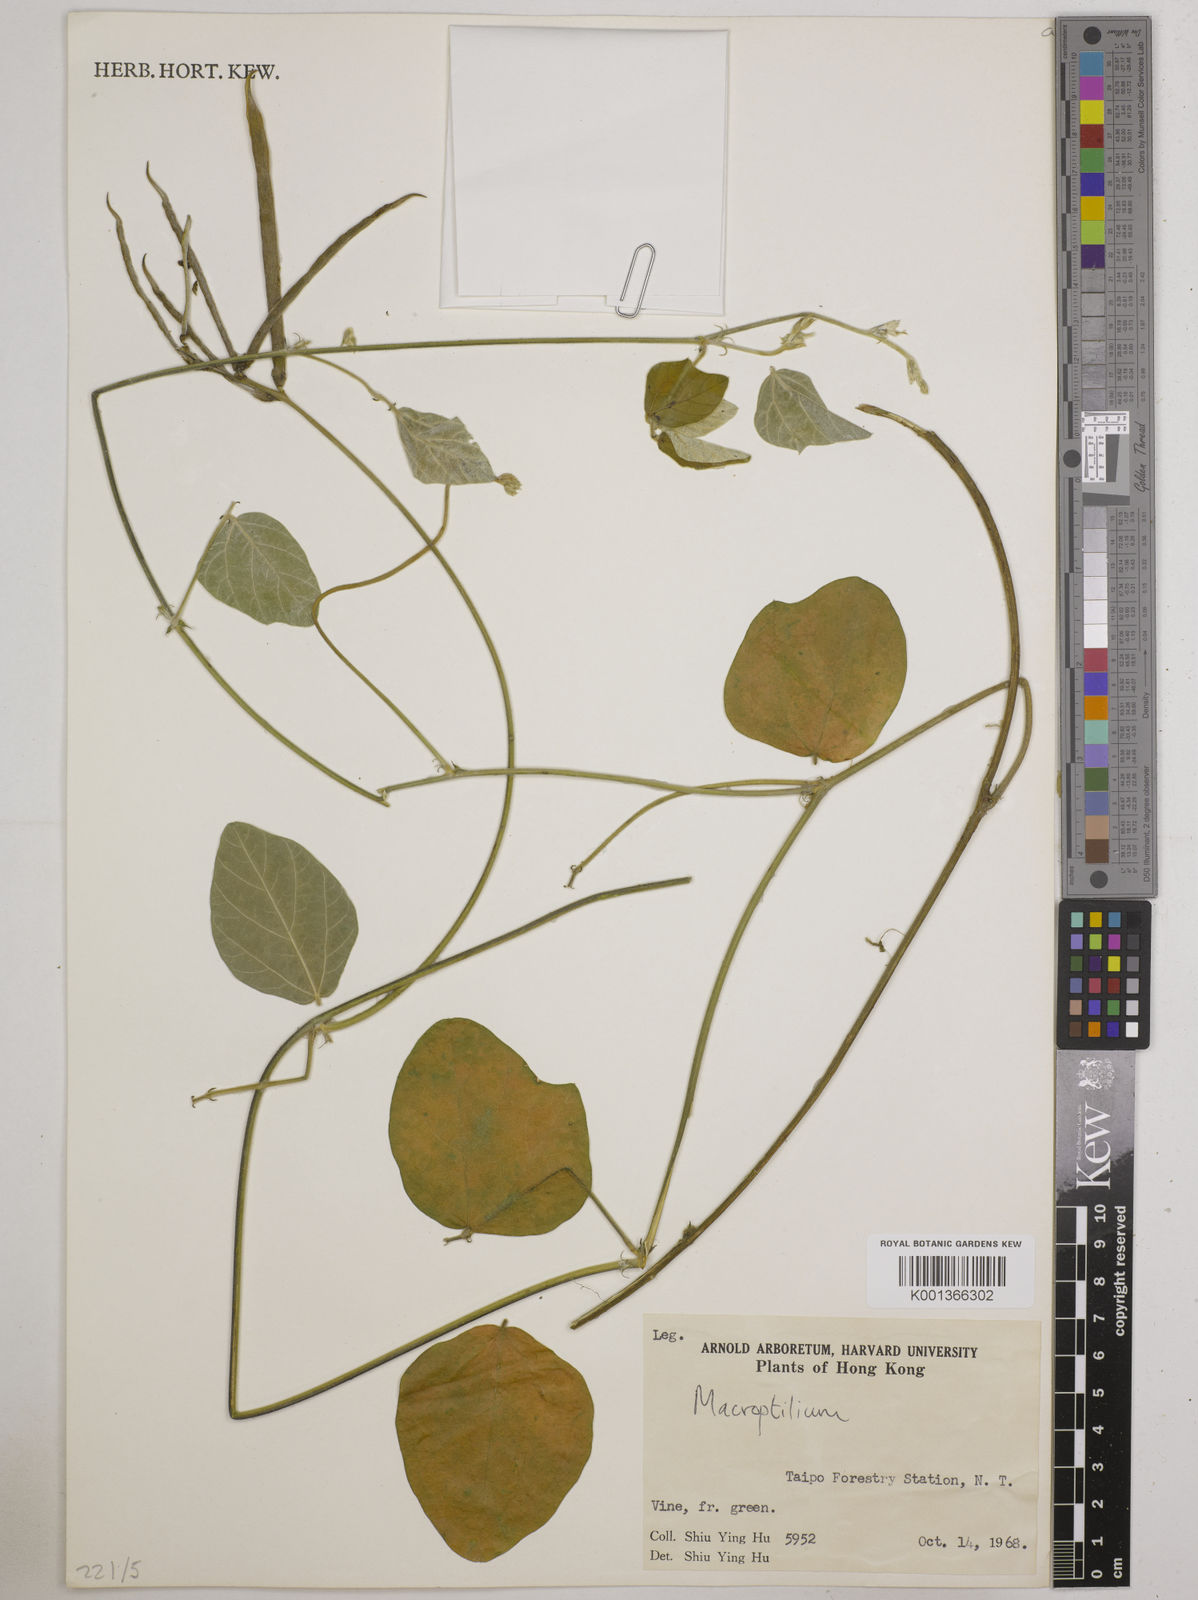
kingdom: Plantae
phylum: Tracheophyta
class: Magnoliopsida
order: Fabales
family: Fabaceae
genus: Macroptilium
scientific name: Macroptilium
